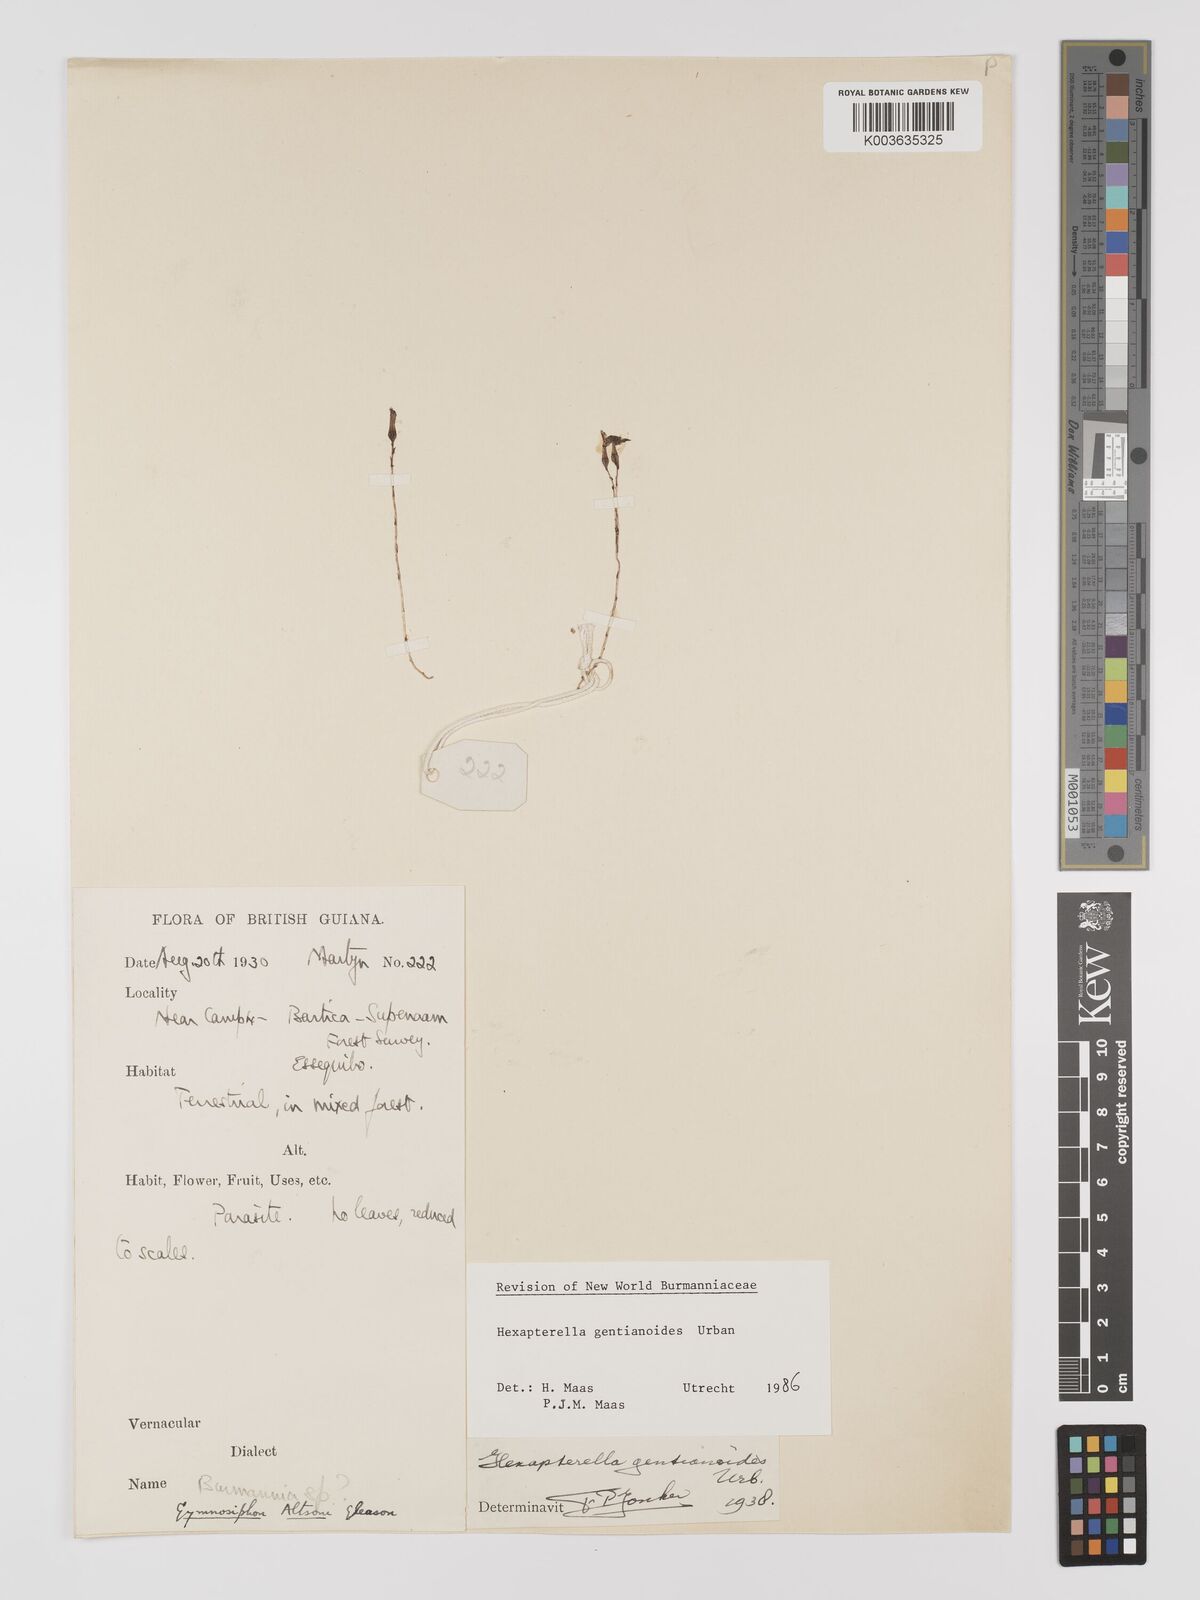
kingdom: Plantae
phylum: Tracheophyta
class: Liliopsida
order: Dioscoreales
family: Burmanniaceae
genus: Hexapterella
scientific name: Hexapterella gentianoides
